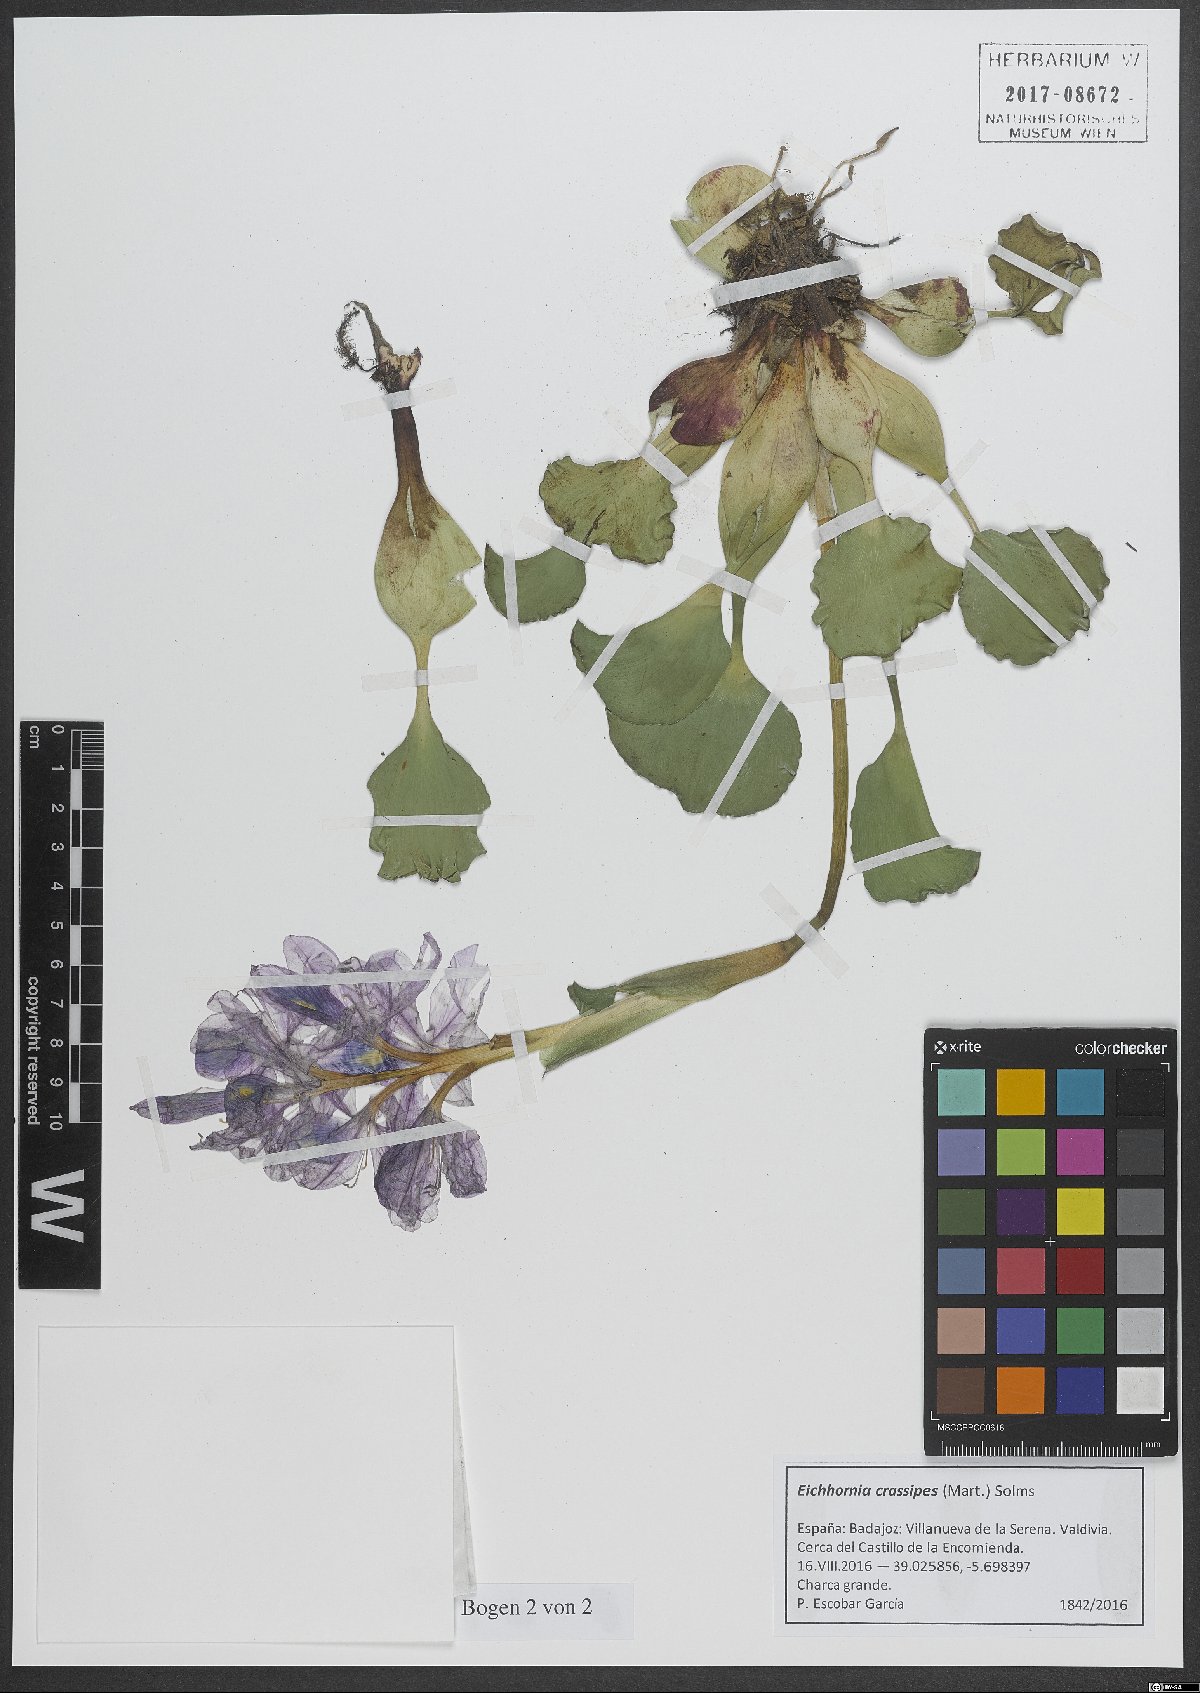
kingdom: Plantae
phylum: Tracheophyta
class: Liliopsida
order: Commelinales
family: Pontederiaceae
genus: Pontederia
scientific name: Pontederia crassipes
